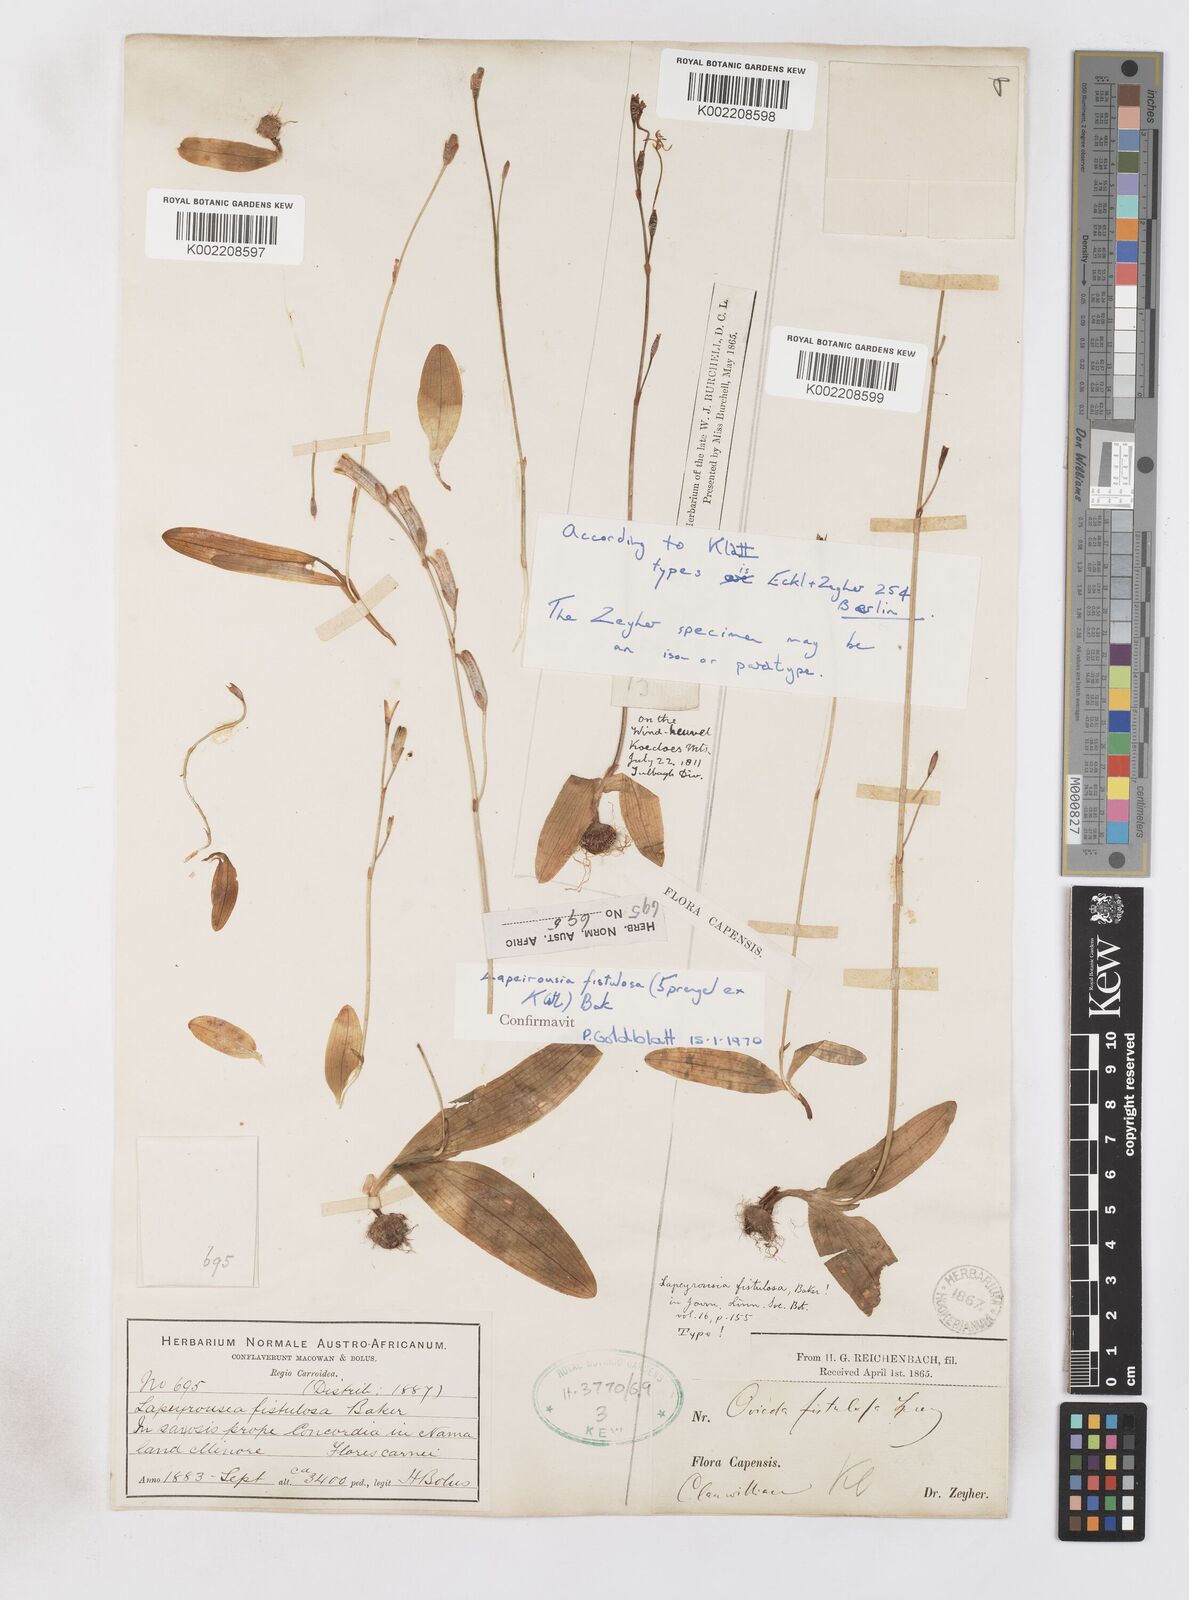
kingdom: Plantae
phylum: Tracheophyta
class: Liliopsida
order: Asparagales
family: Iridaceae
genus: Xenoscapa
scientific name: Xenoscapa fistulosa
